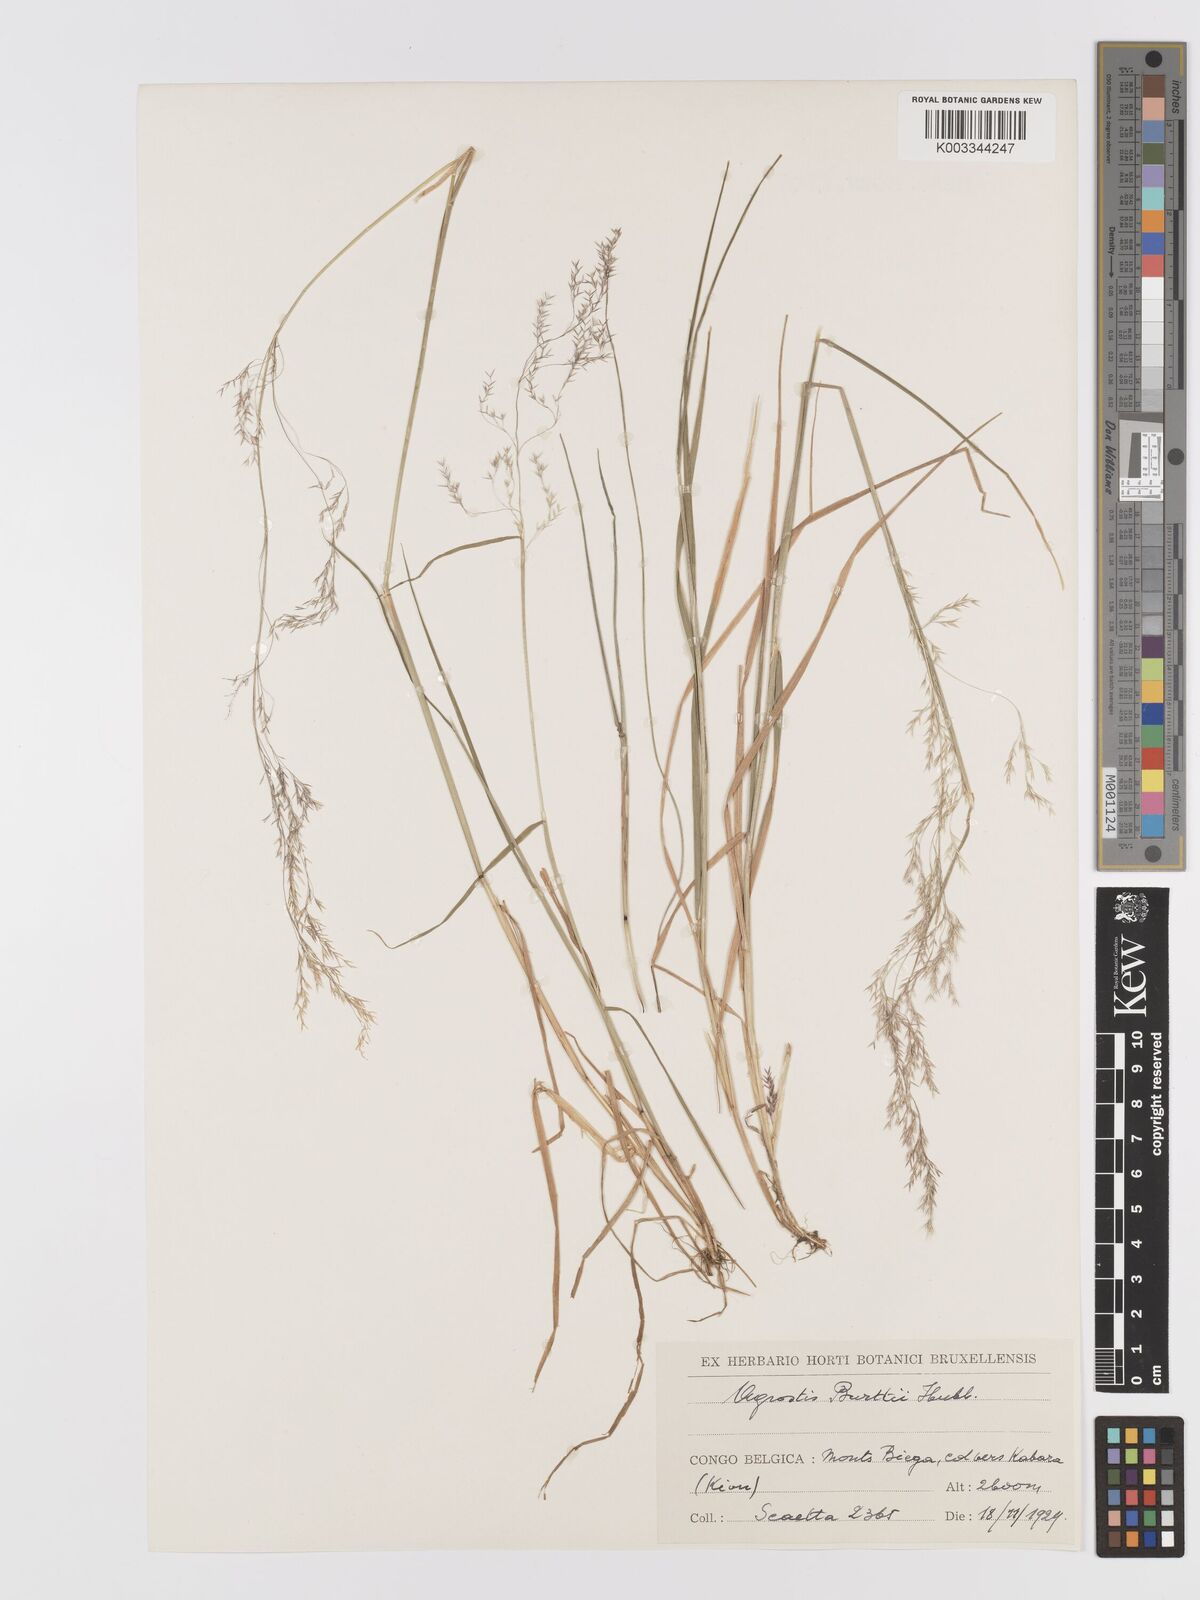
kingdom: Plantae
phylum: Tracheophyta
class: Liliopsida
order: Poales
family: Poaceae
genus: Agrostis
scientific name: Agrostis kilimandscharica
